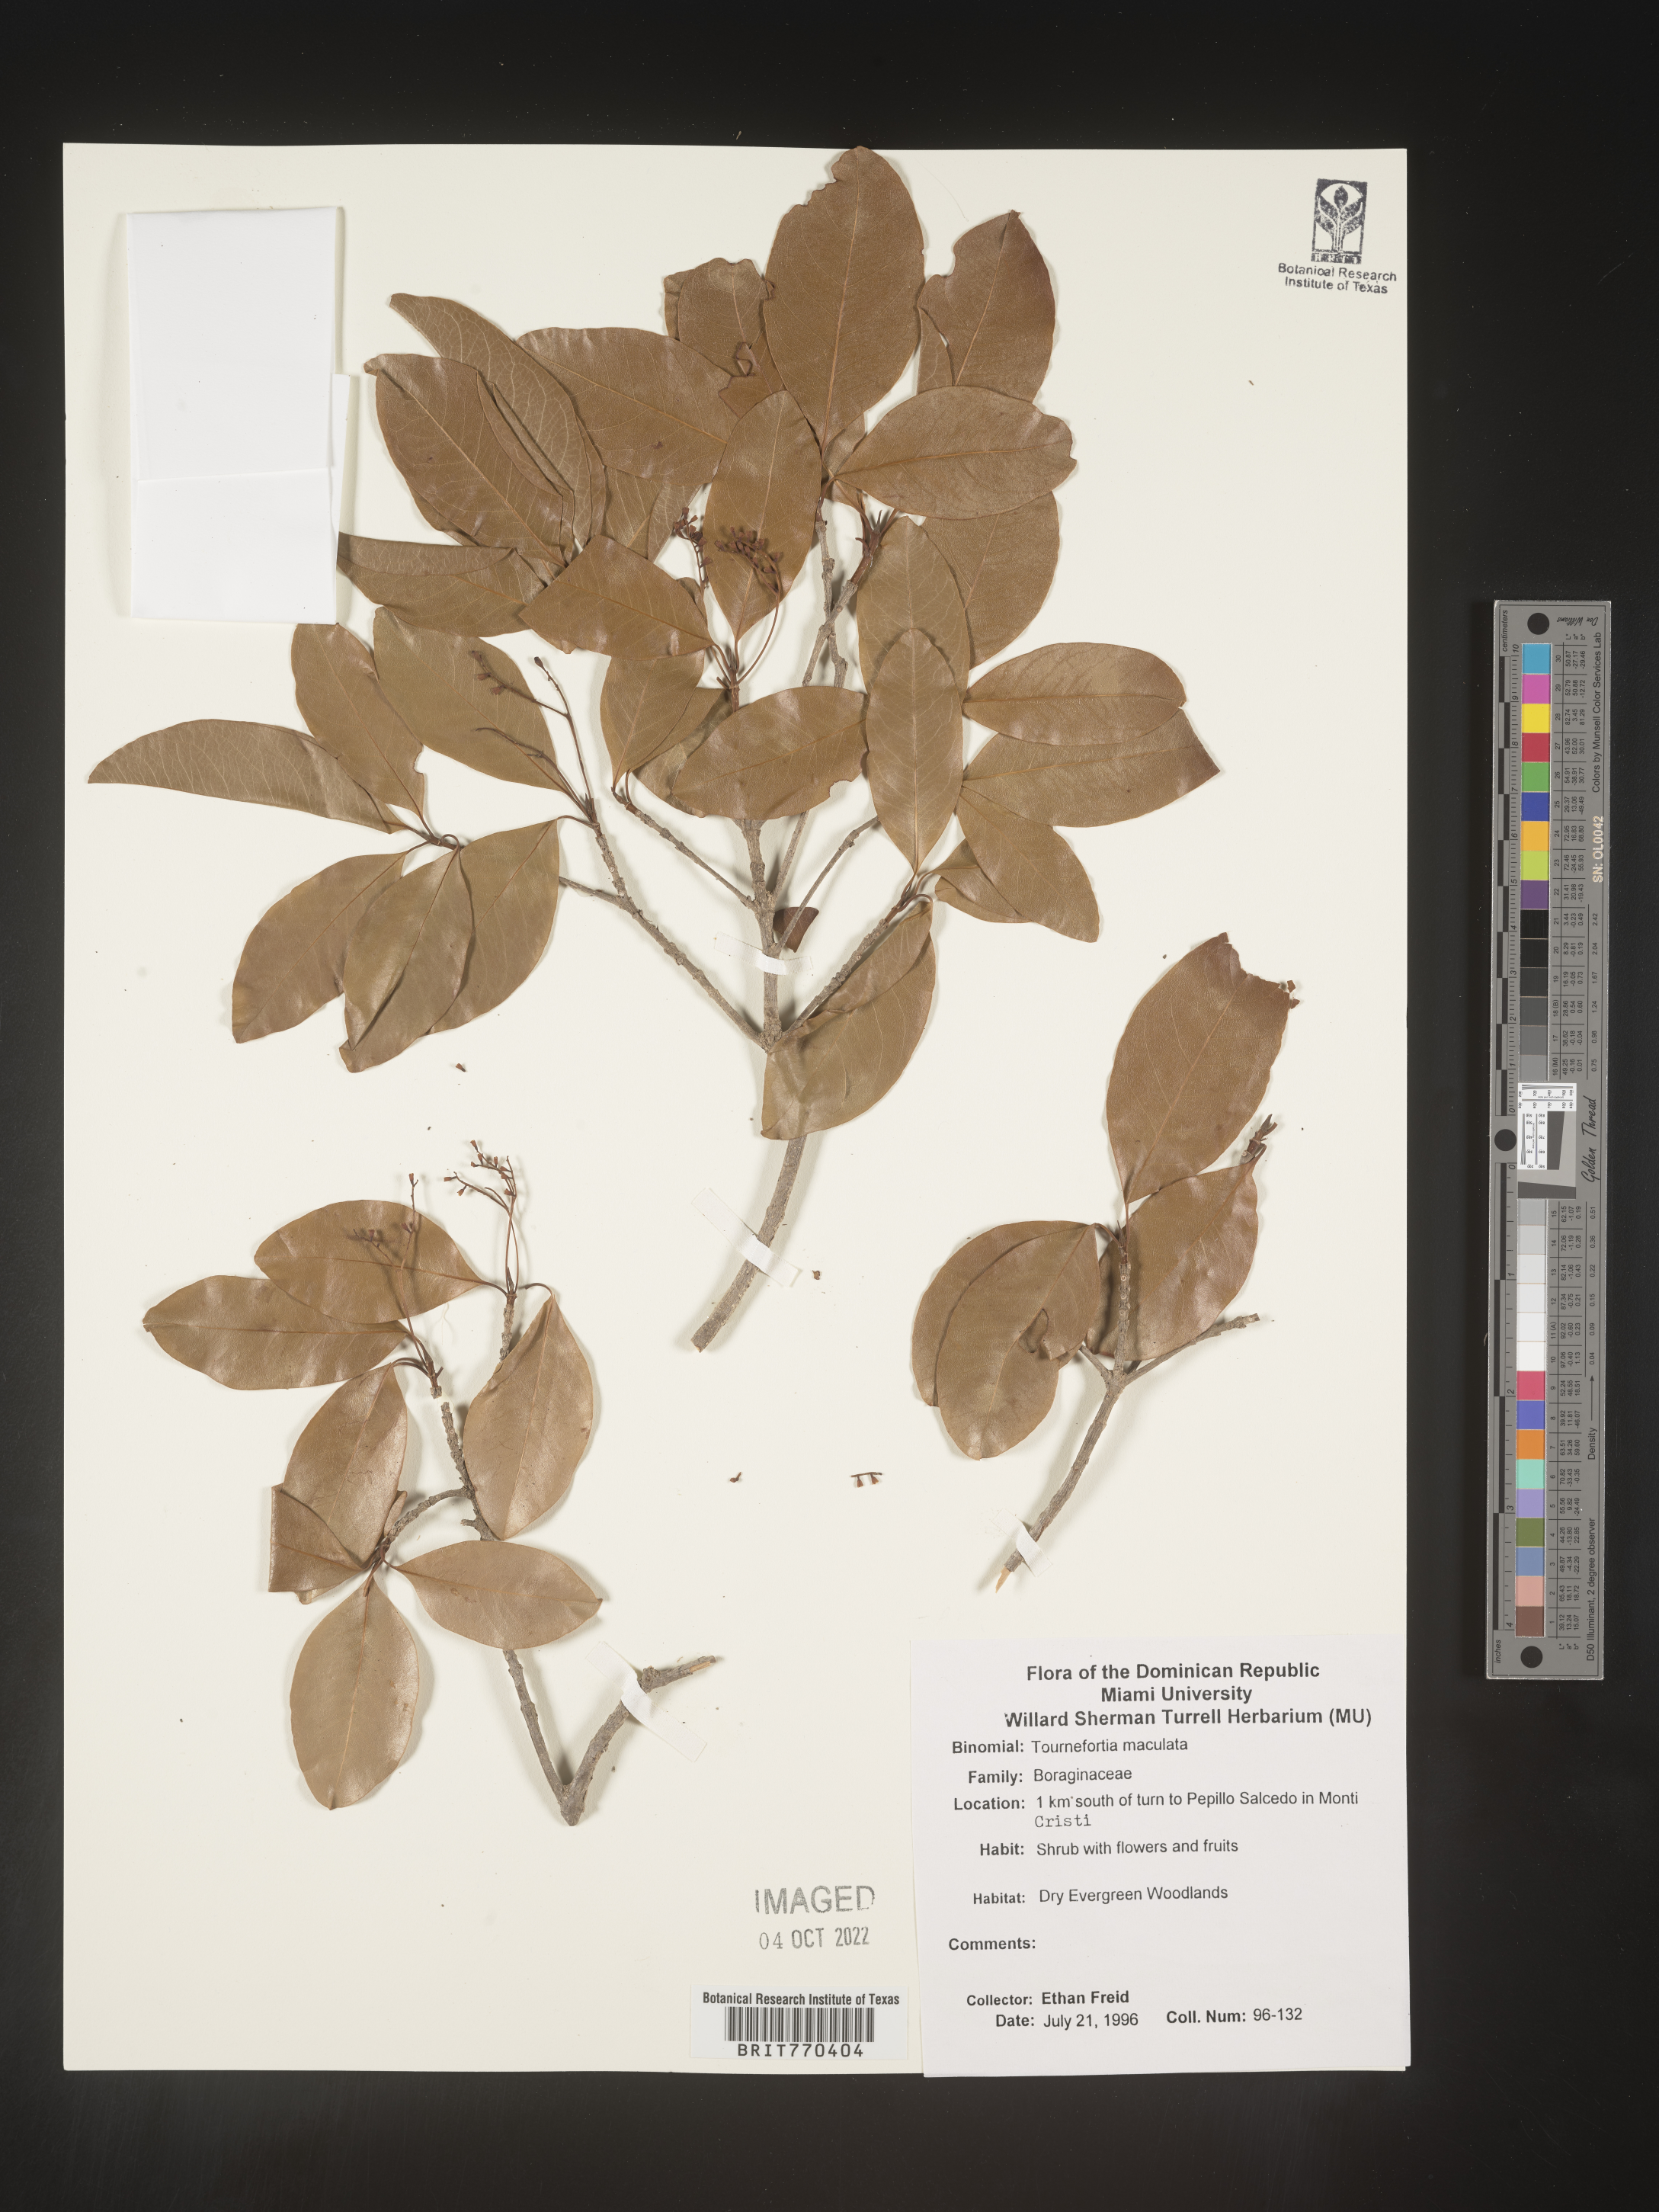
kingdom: Plantae
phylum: Tracheophyta
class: Magnoliopsida
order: Boraginales
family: Heliotropiaceae
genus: Tournefortia
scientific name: Tournefortia
